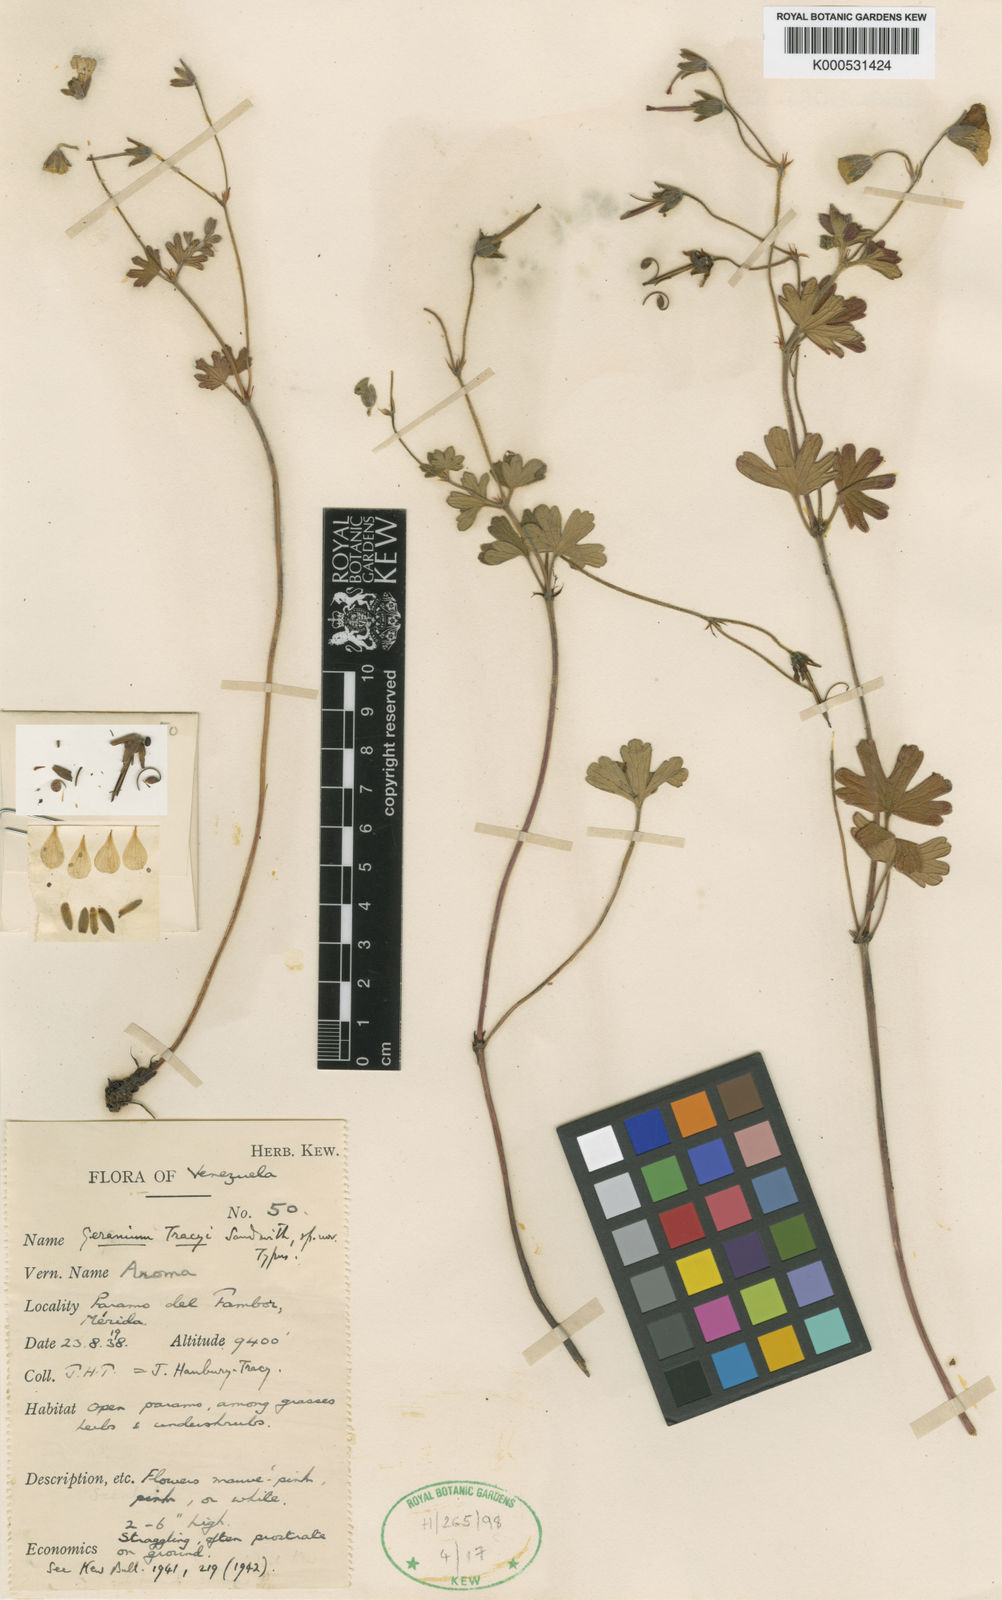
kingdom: Plantae
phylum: Tracheophyta
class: Magnoliopsida
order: Geraniales
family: Geraniaceae
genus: Geranium
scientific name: Geranium multiceps
